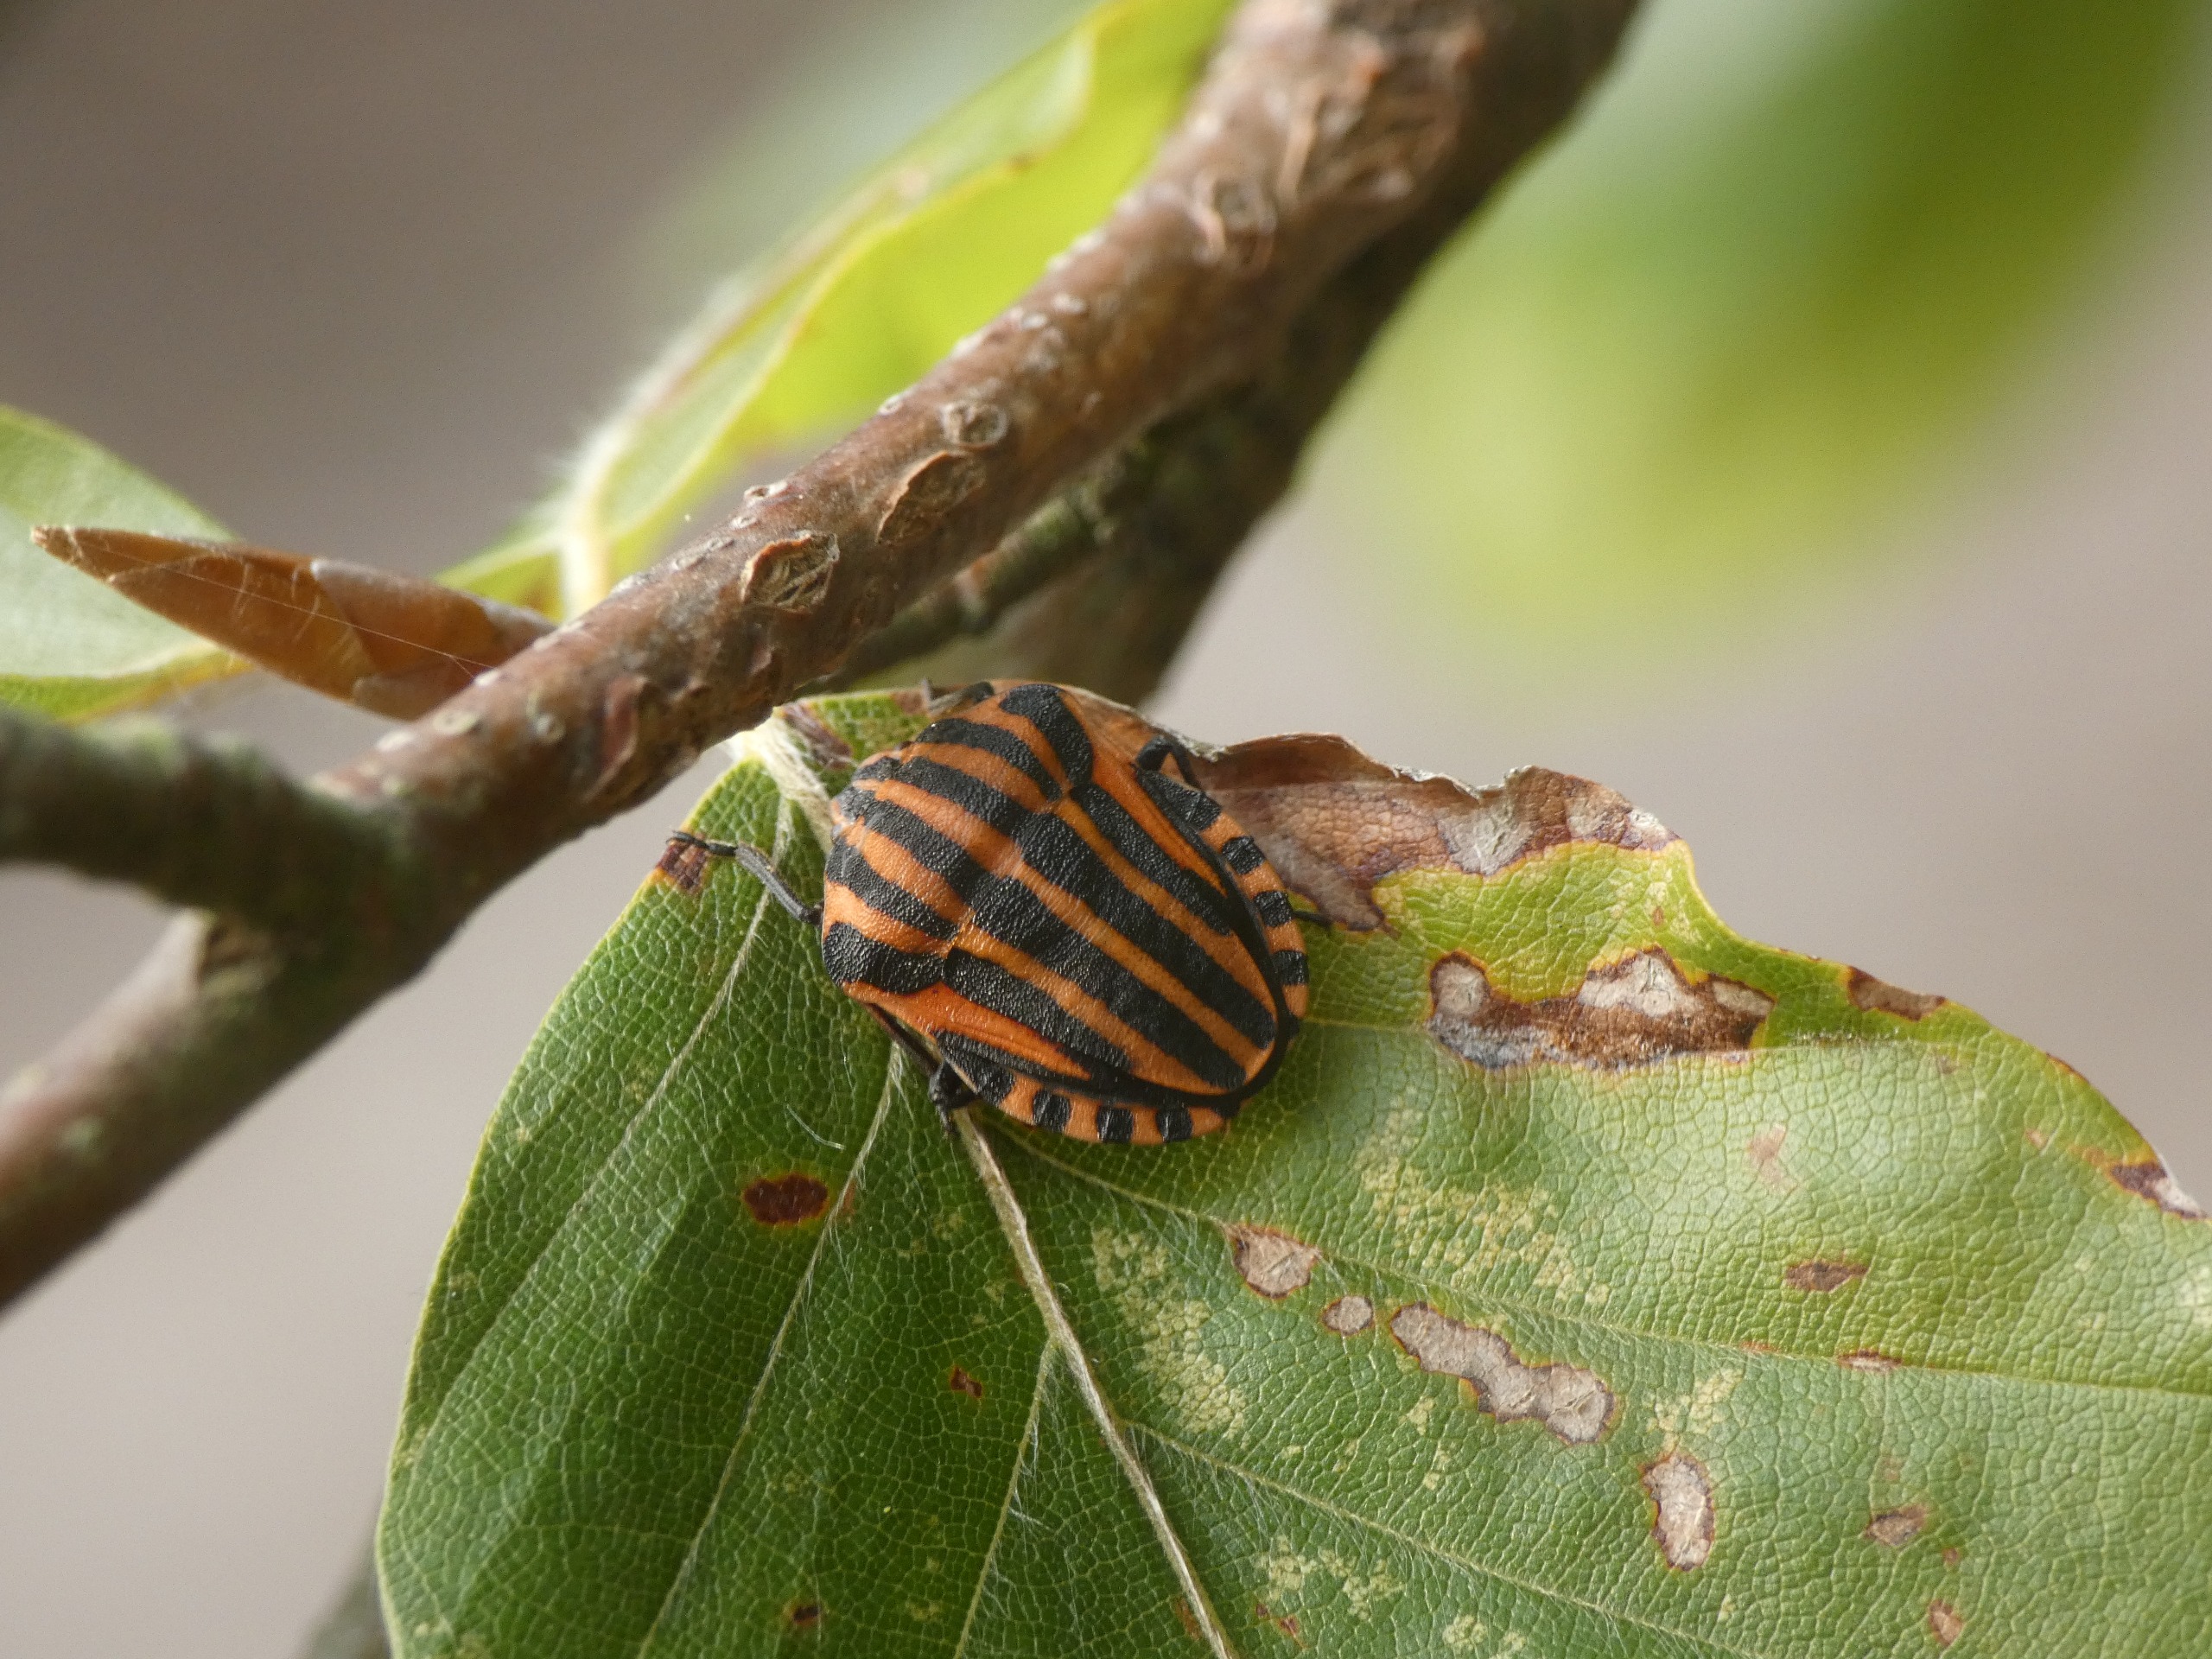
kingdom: Animalia
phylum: Arthropoda
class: Insecta
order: Hemiptera
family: Pentatomidae
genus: Graphosoma
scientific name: Graphosoma italicum
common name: Stribetæge
